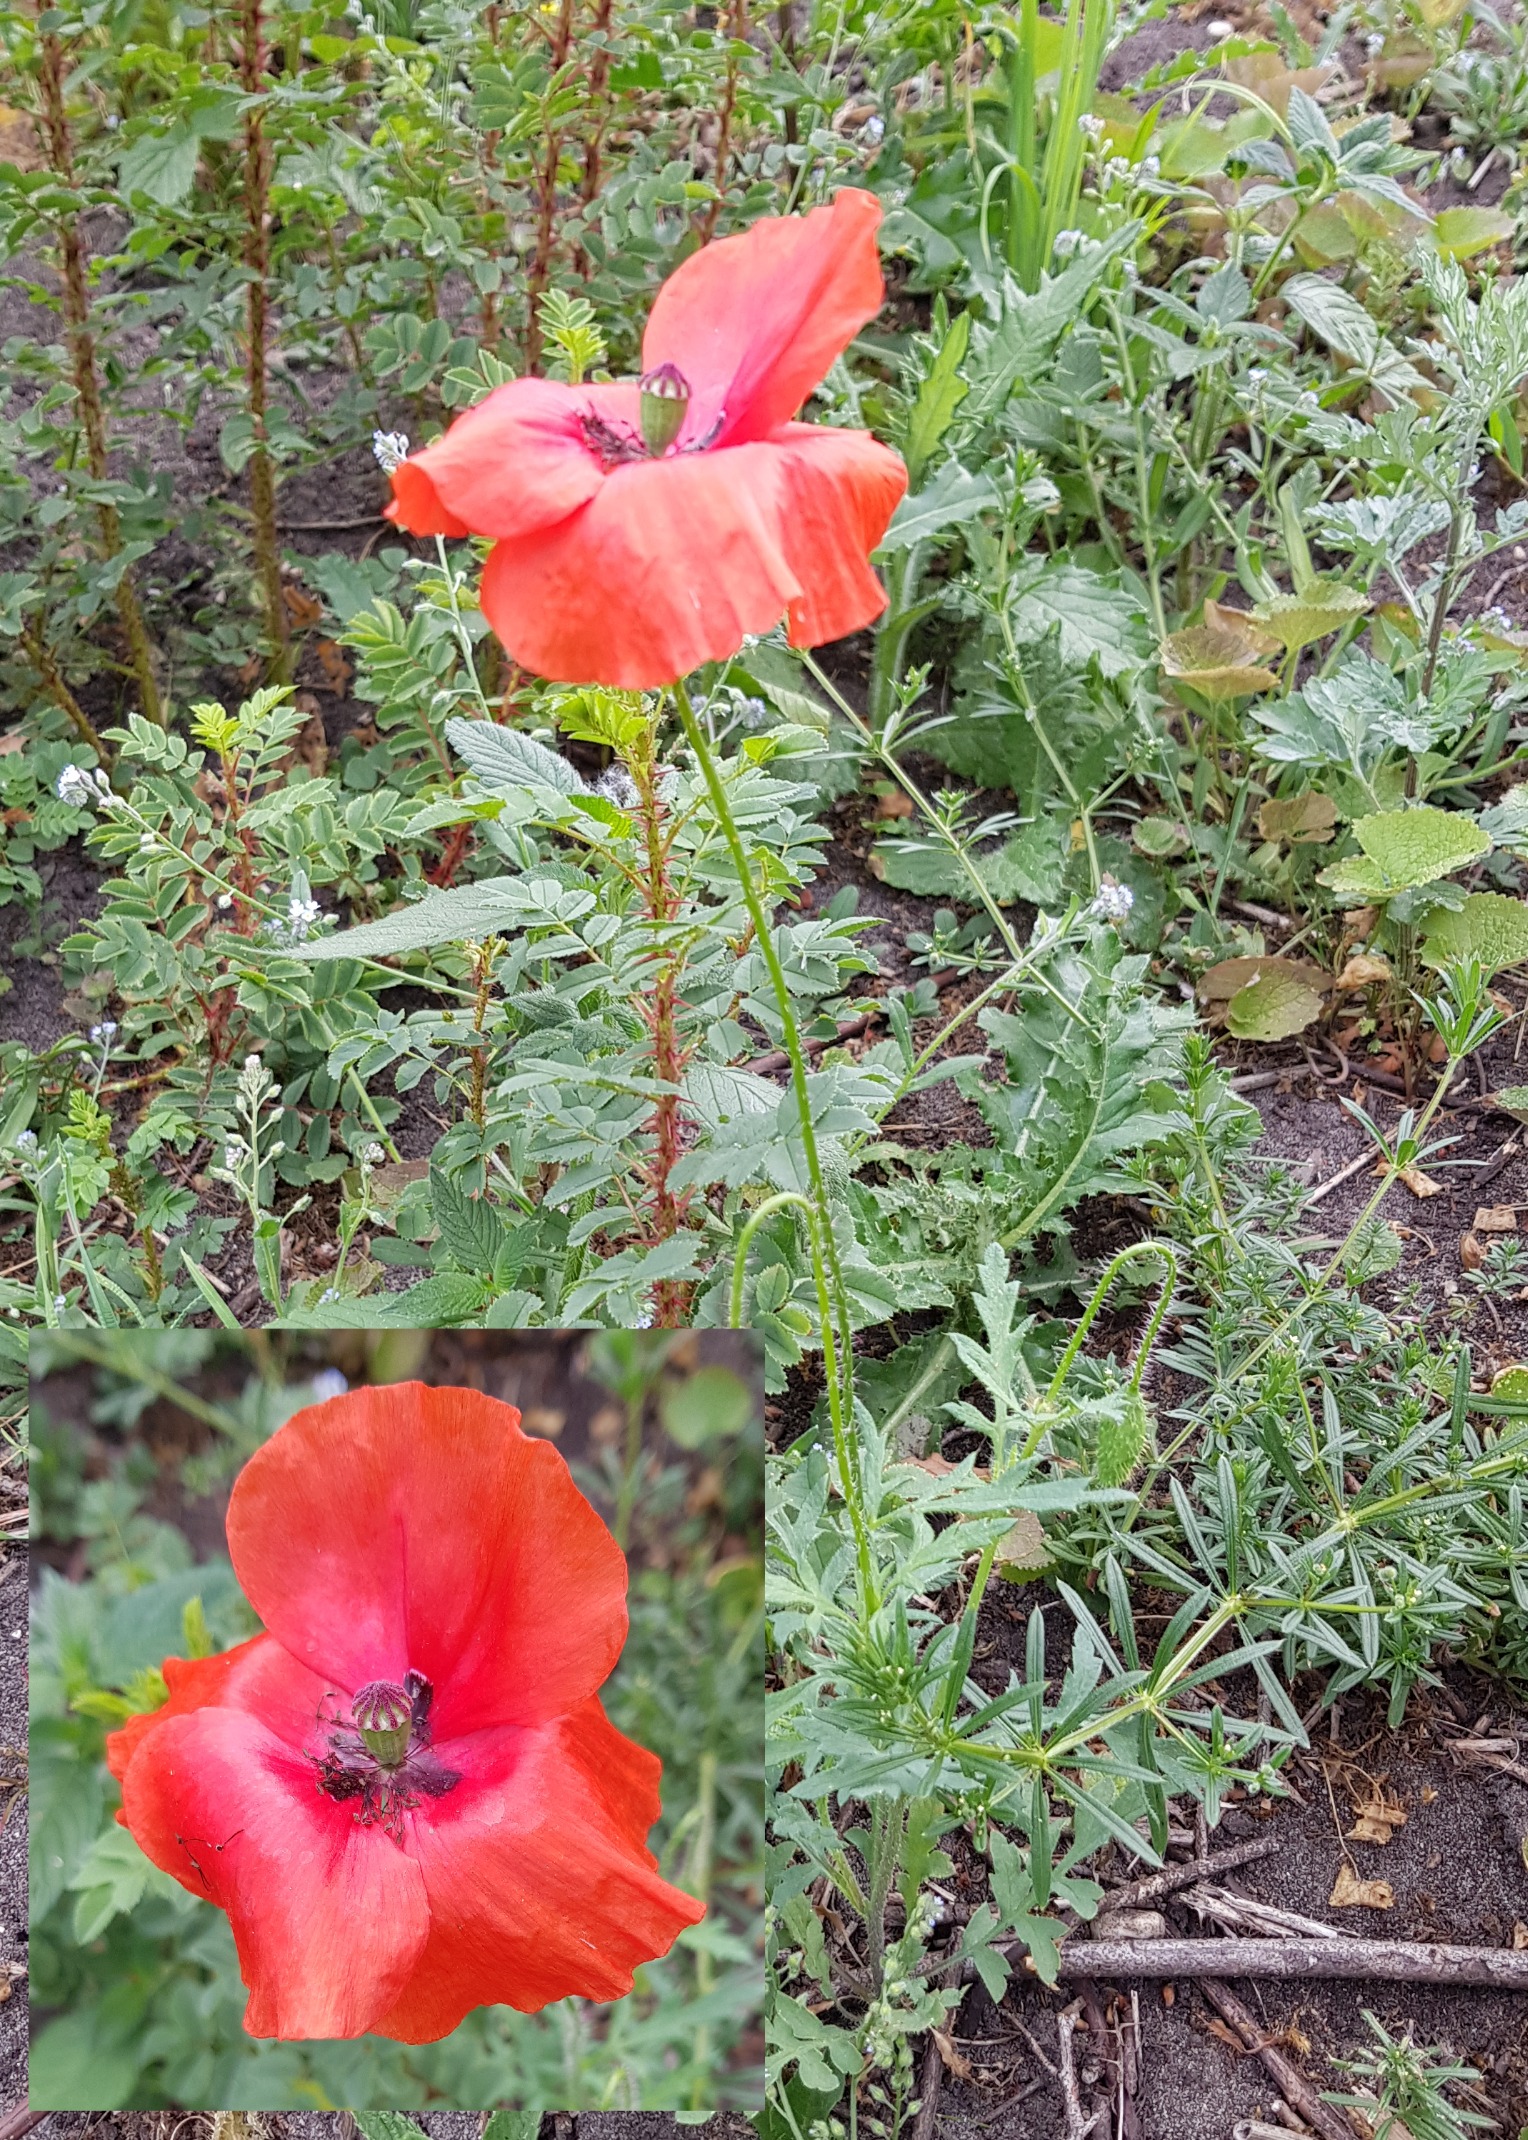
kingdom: Plantae
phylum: Tracheophyta
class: Magnoliopsida
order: Ranunculales
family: Papaveraceae
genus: Papaver
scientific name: Papaver rhoeas
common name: Korn-valmue
